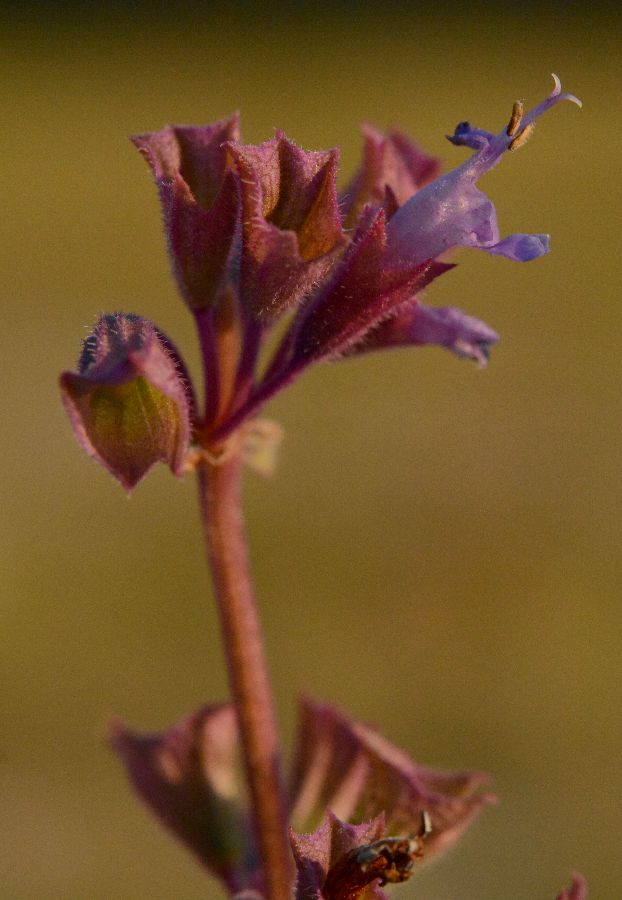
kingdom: Plantae
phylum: Tracheophyta
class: Magnoliopsida
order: Lamiales
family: Lamiaceae
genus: Salvia
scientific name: Salvia verticillata
